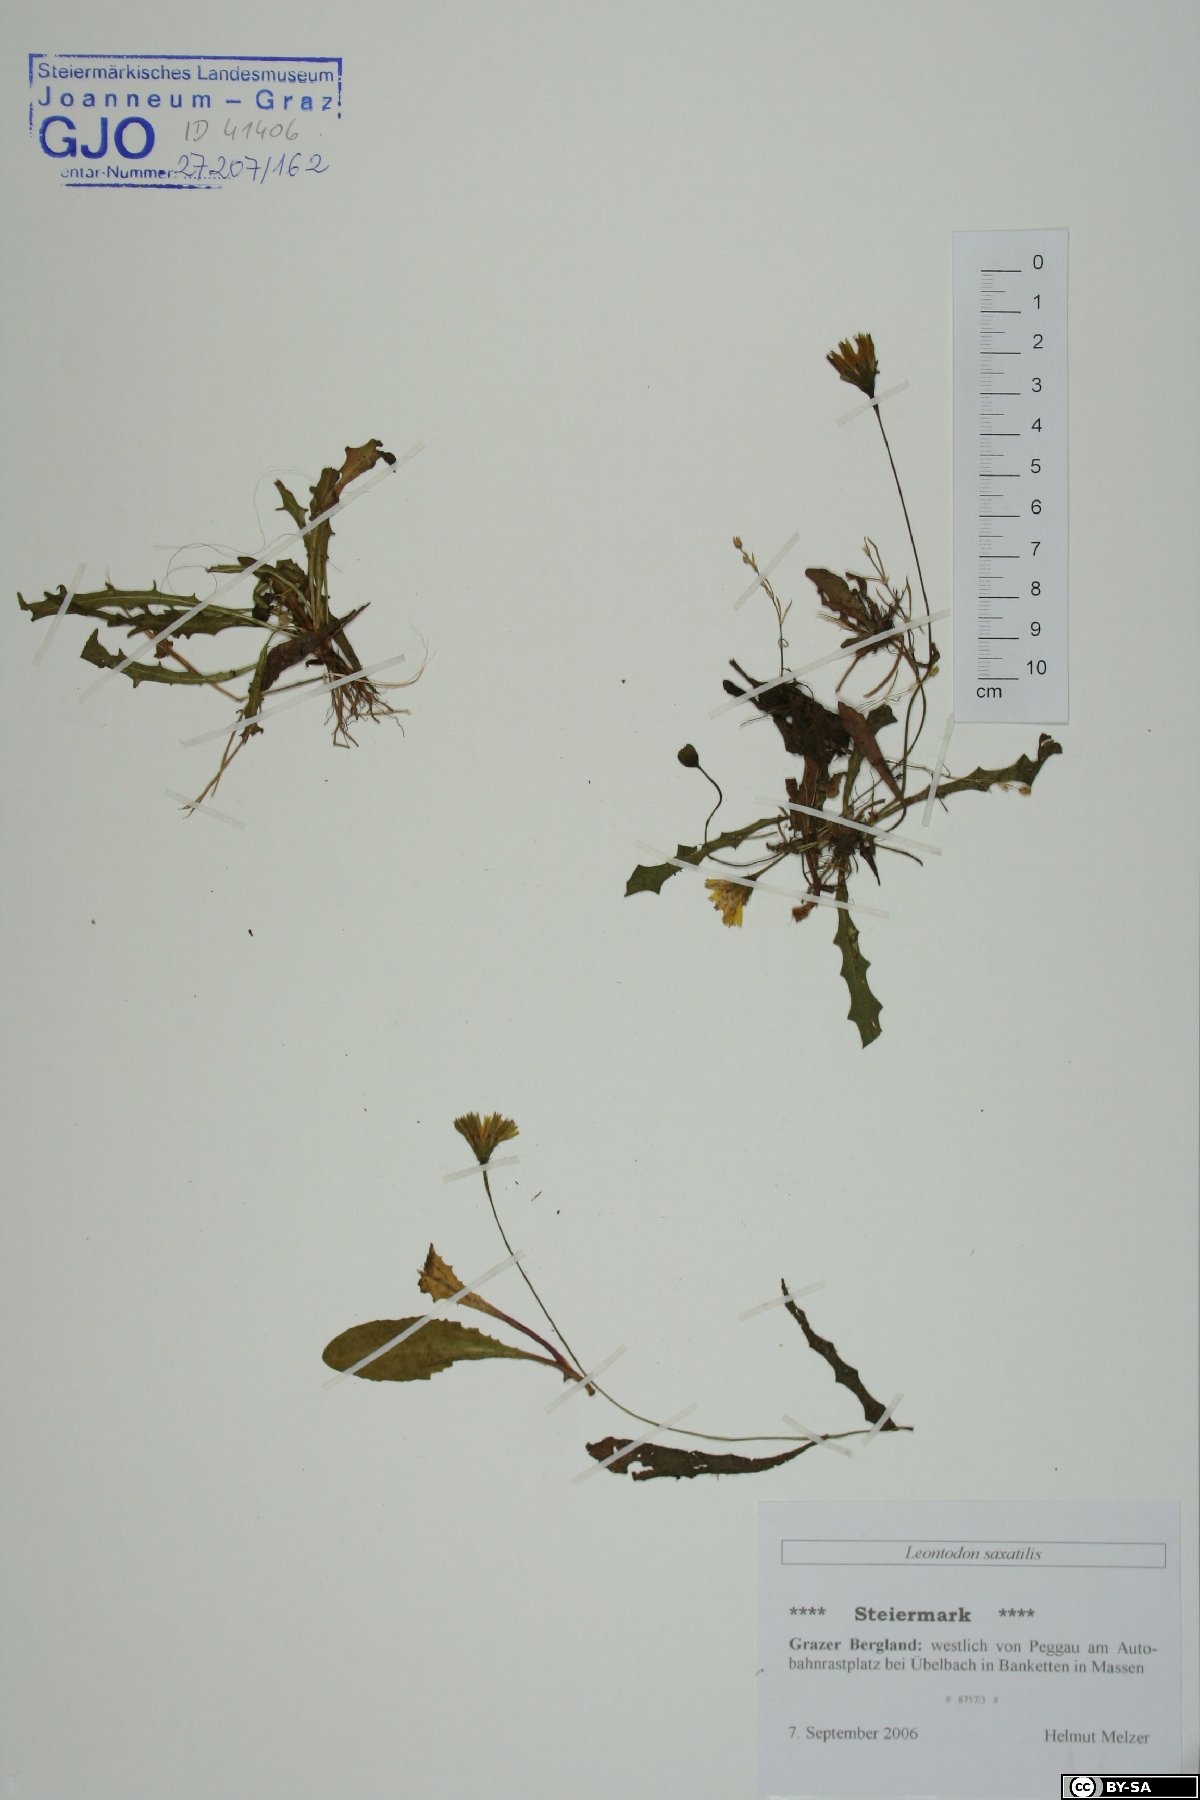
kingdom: Plantae
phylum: Tracheophyta
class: Magnoliopsida
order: Asterales
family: Asteraceae
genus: Thrincia
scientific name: Thrincia saxatilis
